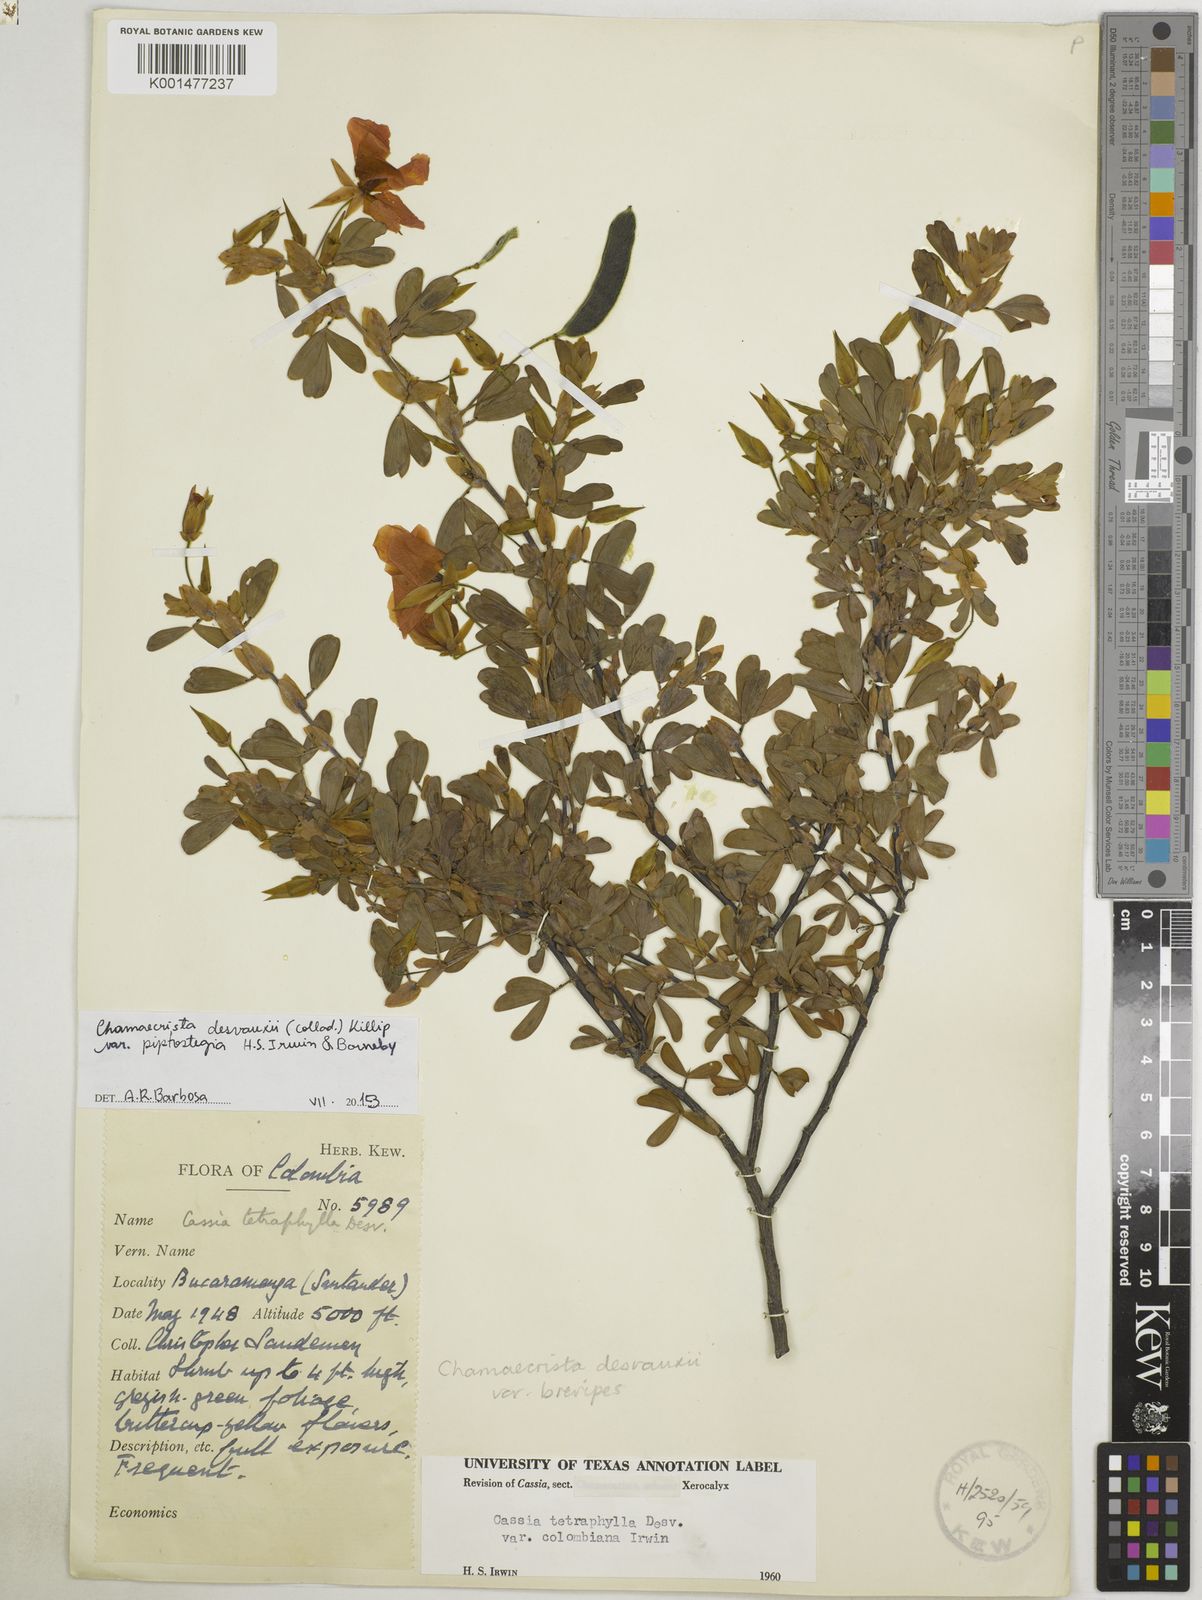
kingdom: Plantae
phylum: Tracheophyta
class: Magnoliopsida
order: Fabales
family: Fabaceae
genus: Chamaecrista
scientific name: Chamaecrista desvauxii
